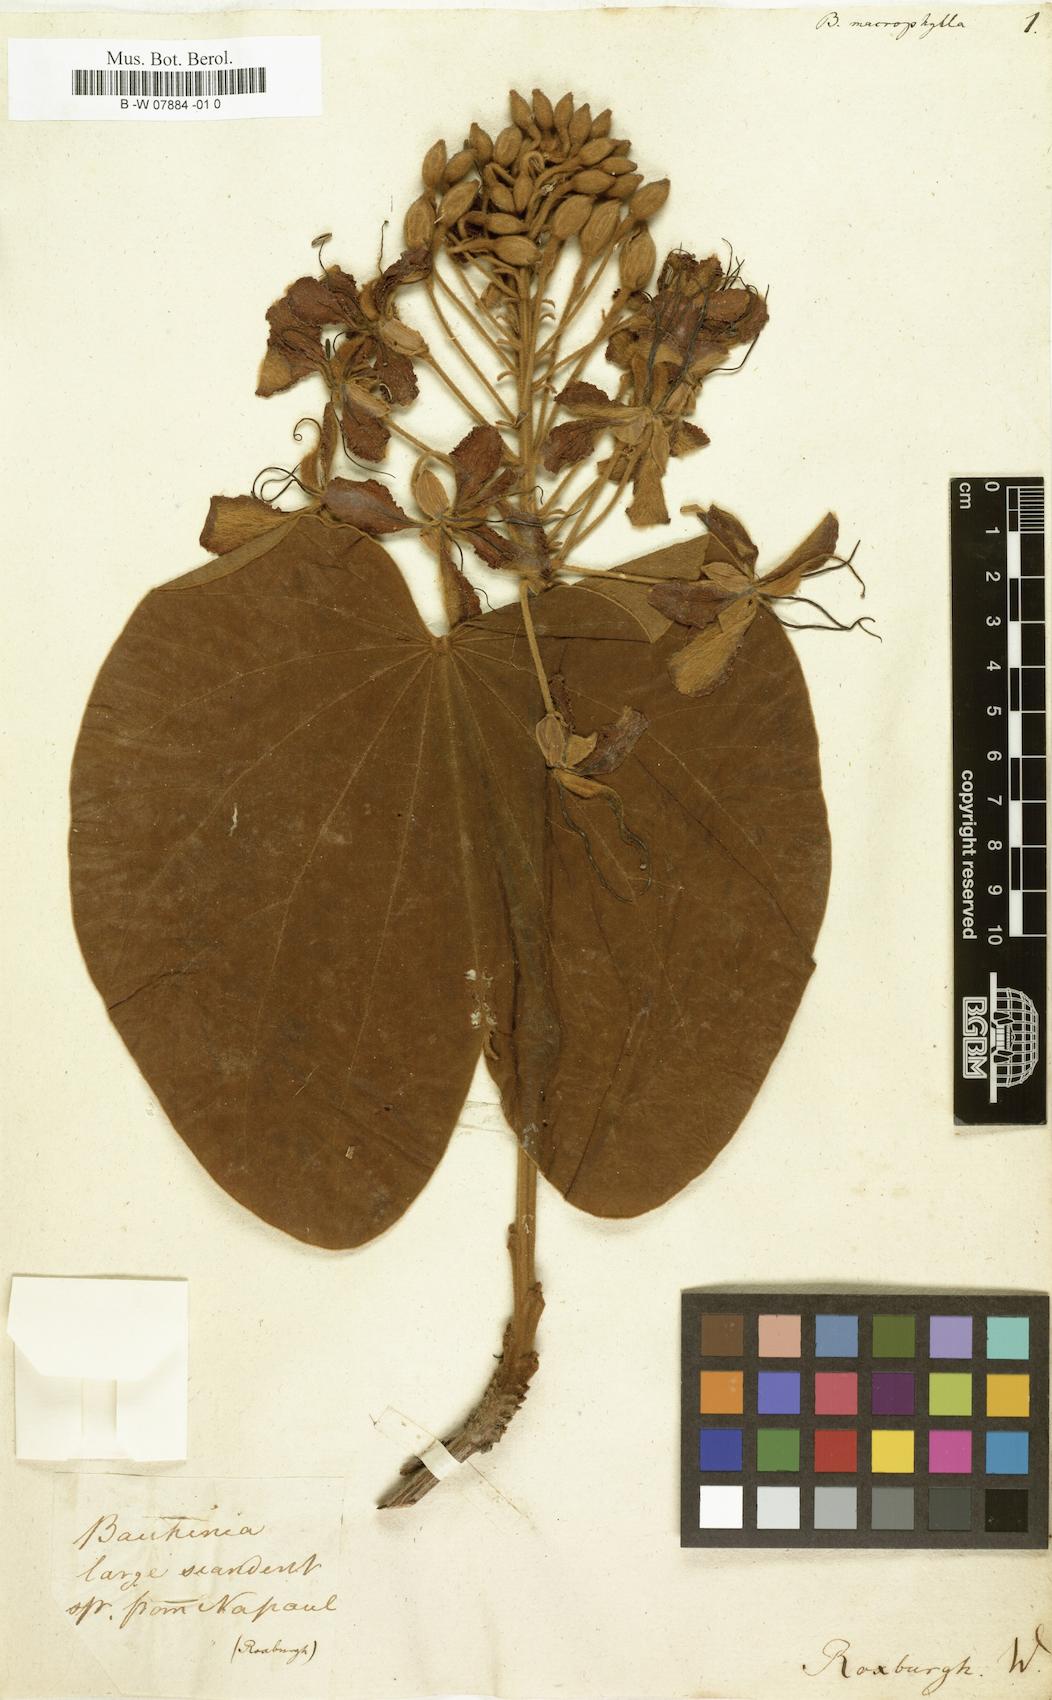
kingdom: Plantae
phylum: Tracheophyta
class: Magnoliopsida
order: Fabales
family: Fabaceae
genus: Schnella
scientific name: Schnella guianensis
